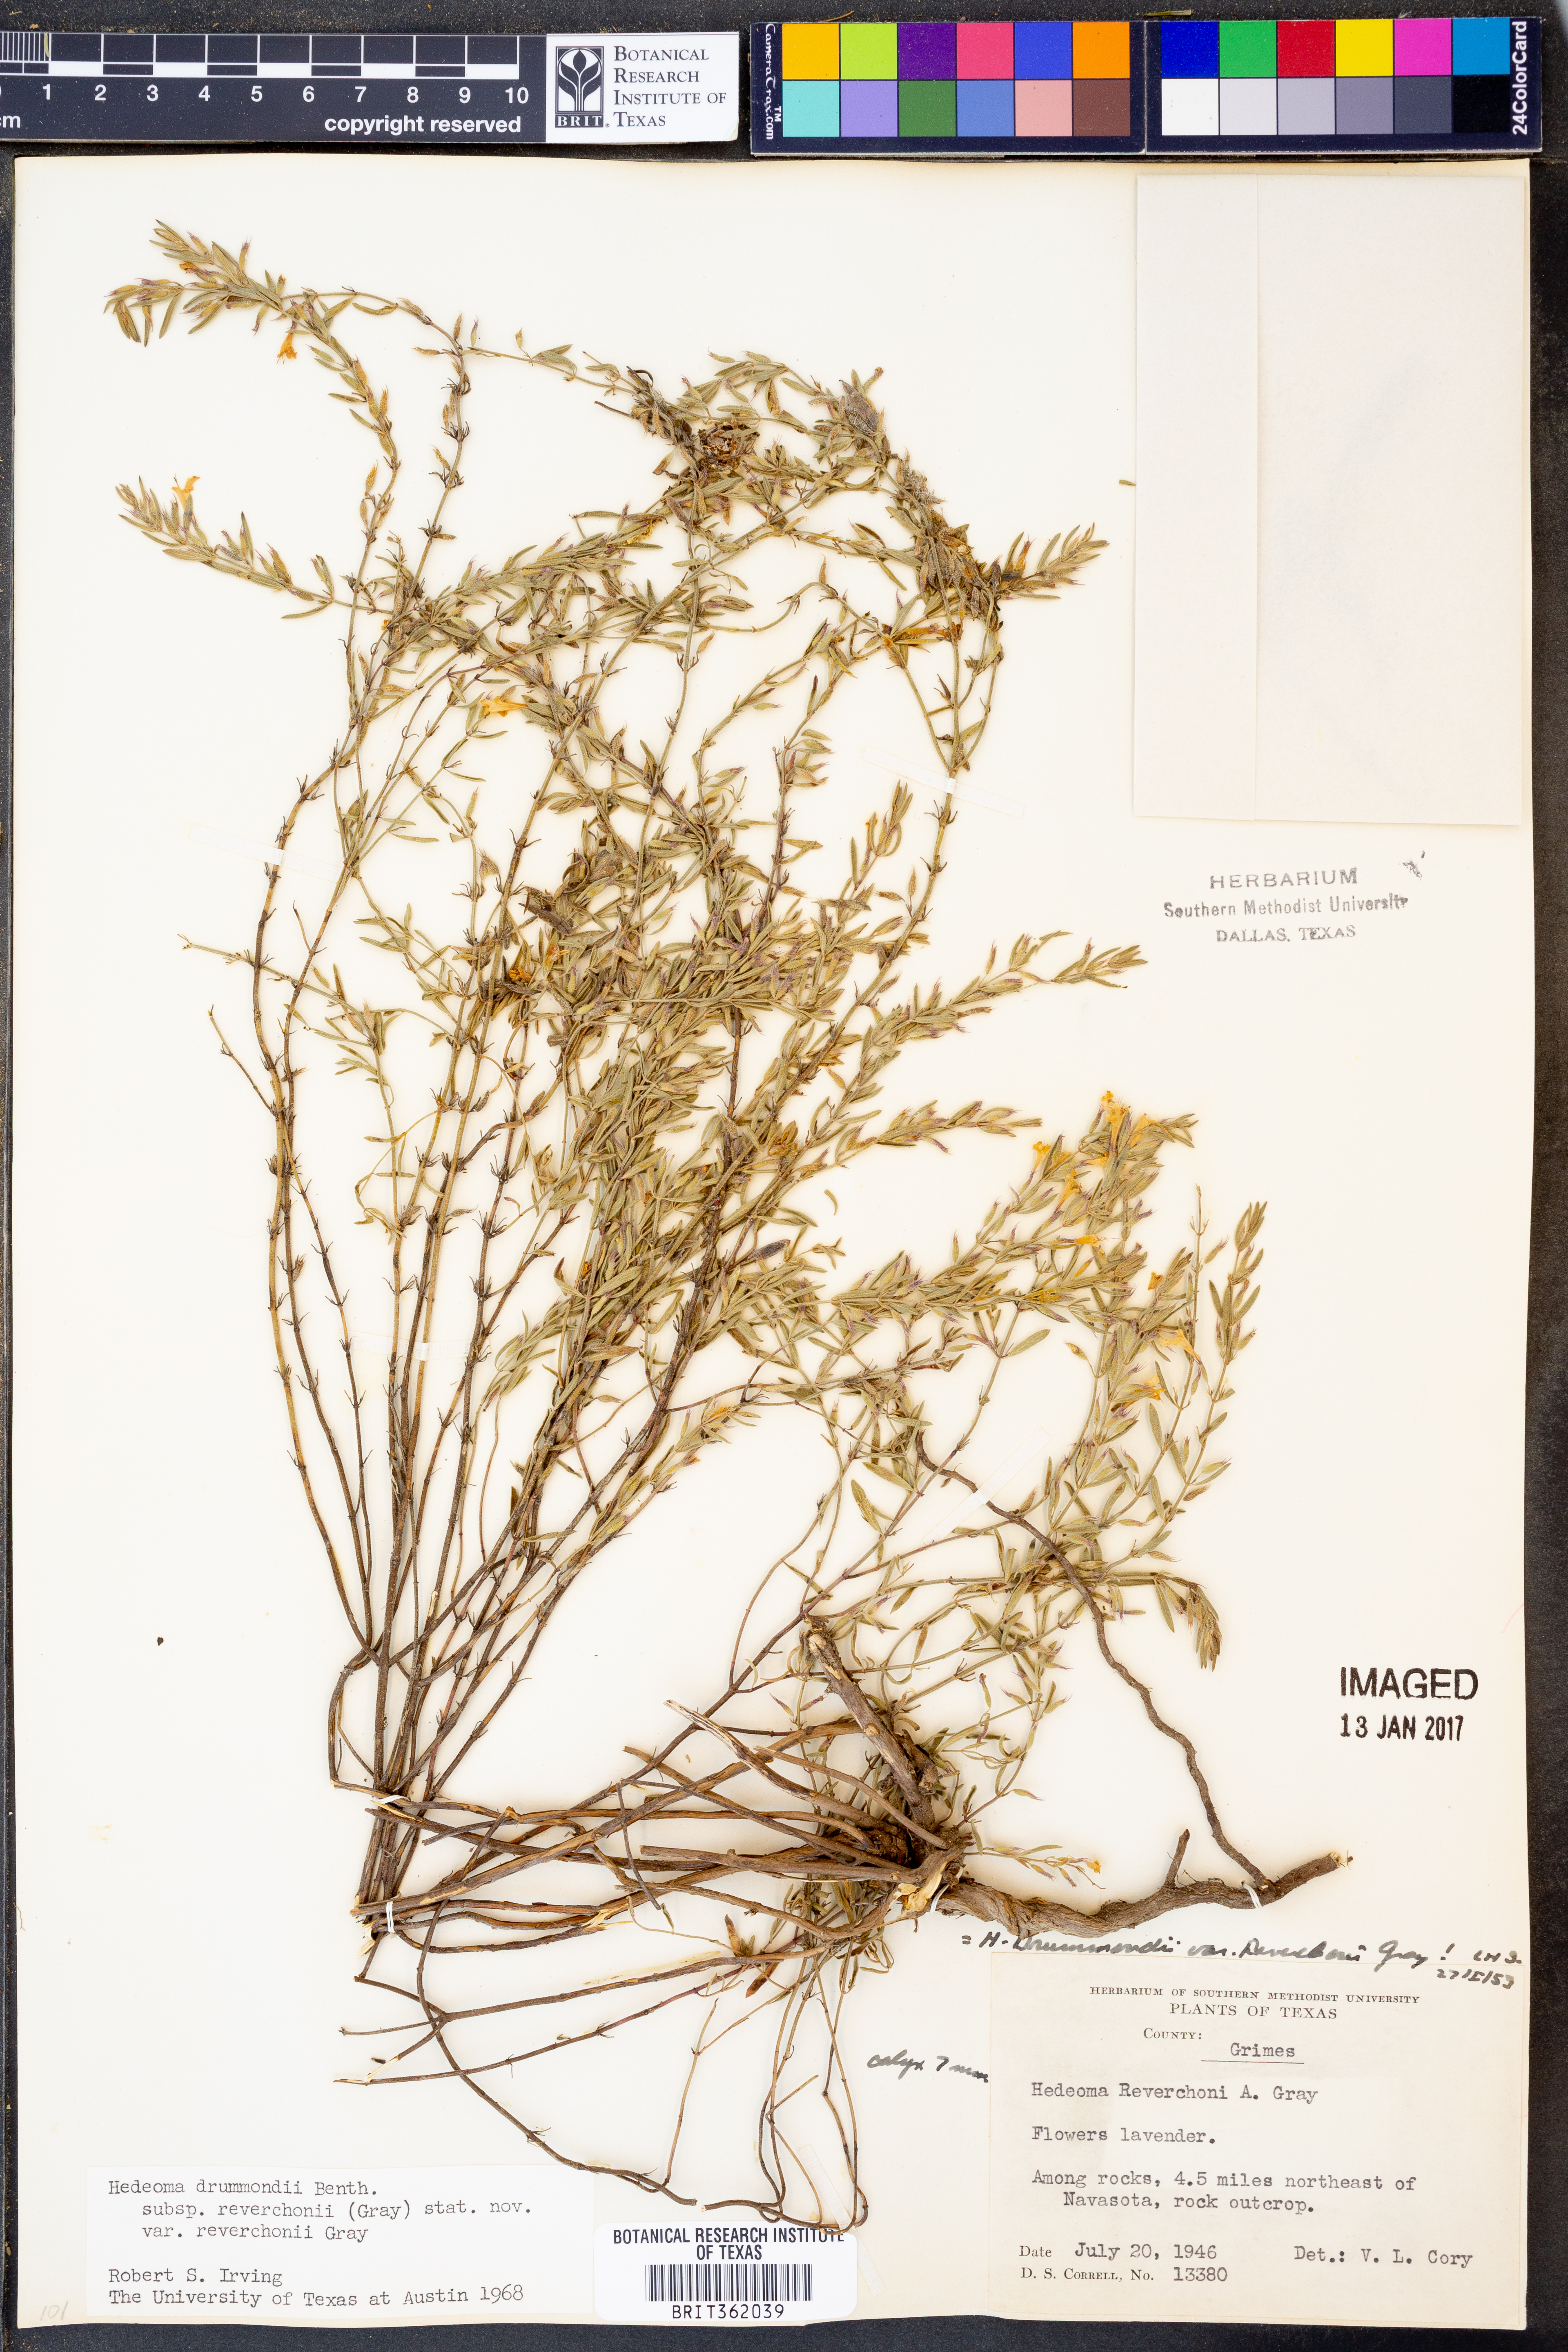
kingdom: Plantae
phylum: Tracheophyta
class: Magnoliopsida
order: Lamiales
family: Lamiaceae
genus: Hedeoma
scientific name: Hedeoma reverchonii
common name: Reverchon's false penny-royal
